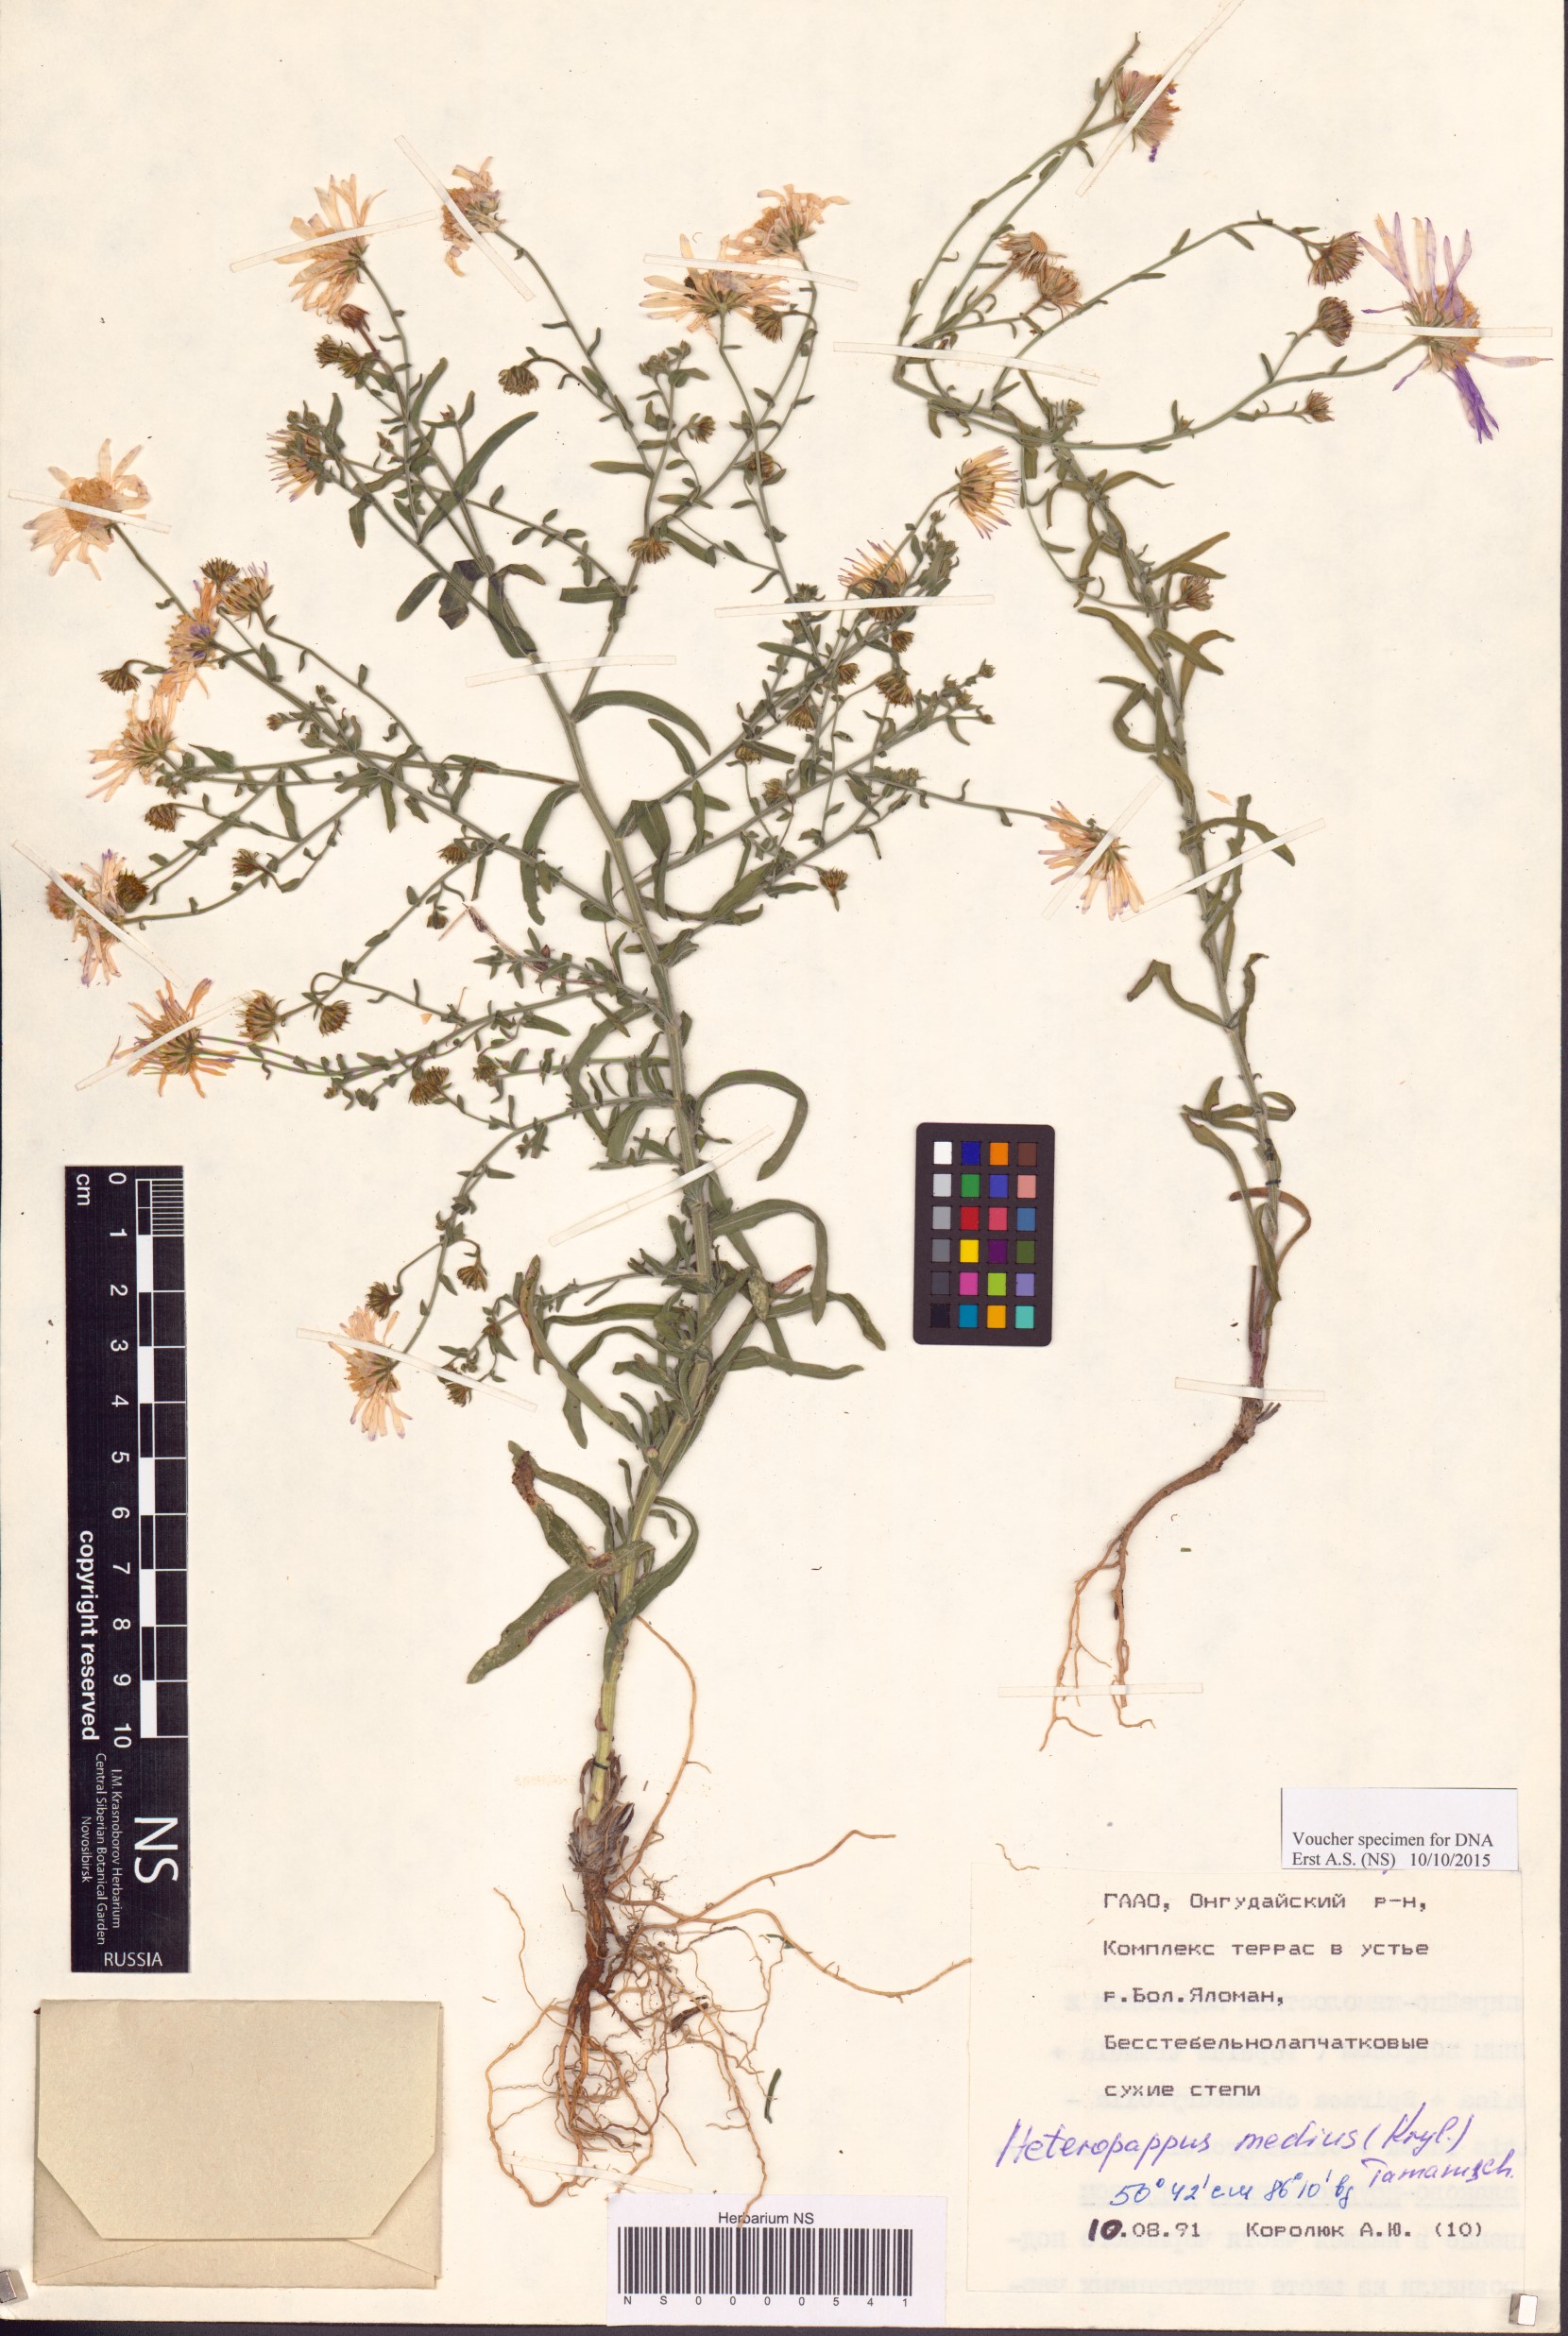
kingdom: Plantae
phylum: Tracheophyta
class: Magnoliopsida
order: Asterales
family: Asteraceae
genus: Heteropappus
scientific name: Heteropappus medius
